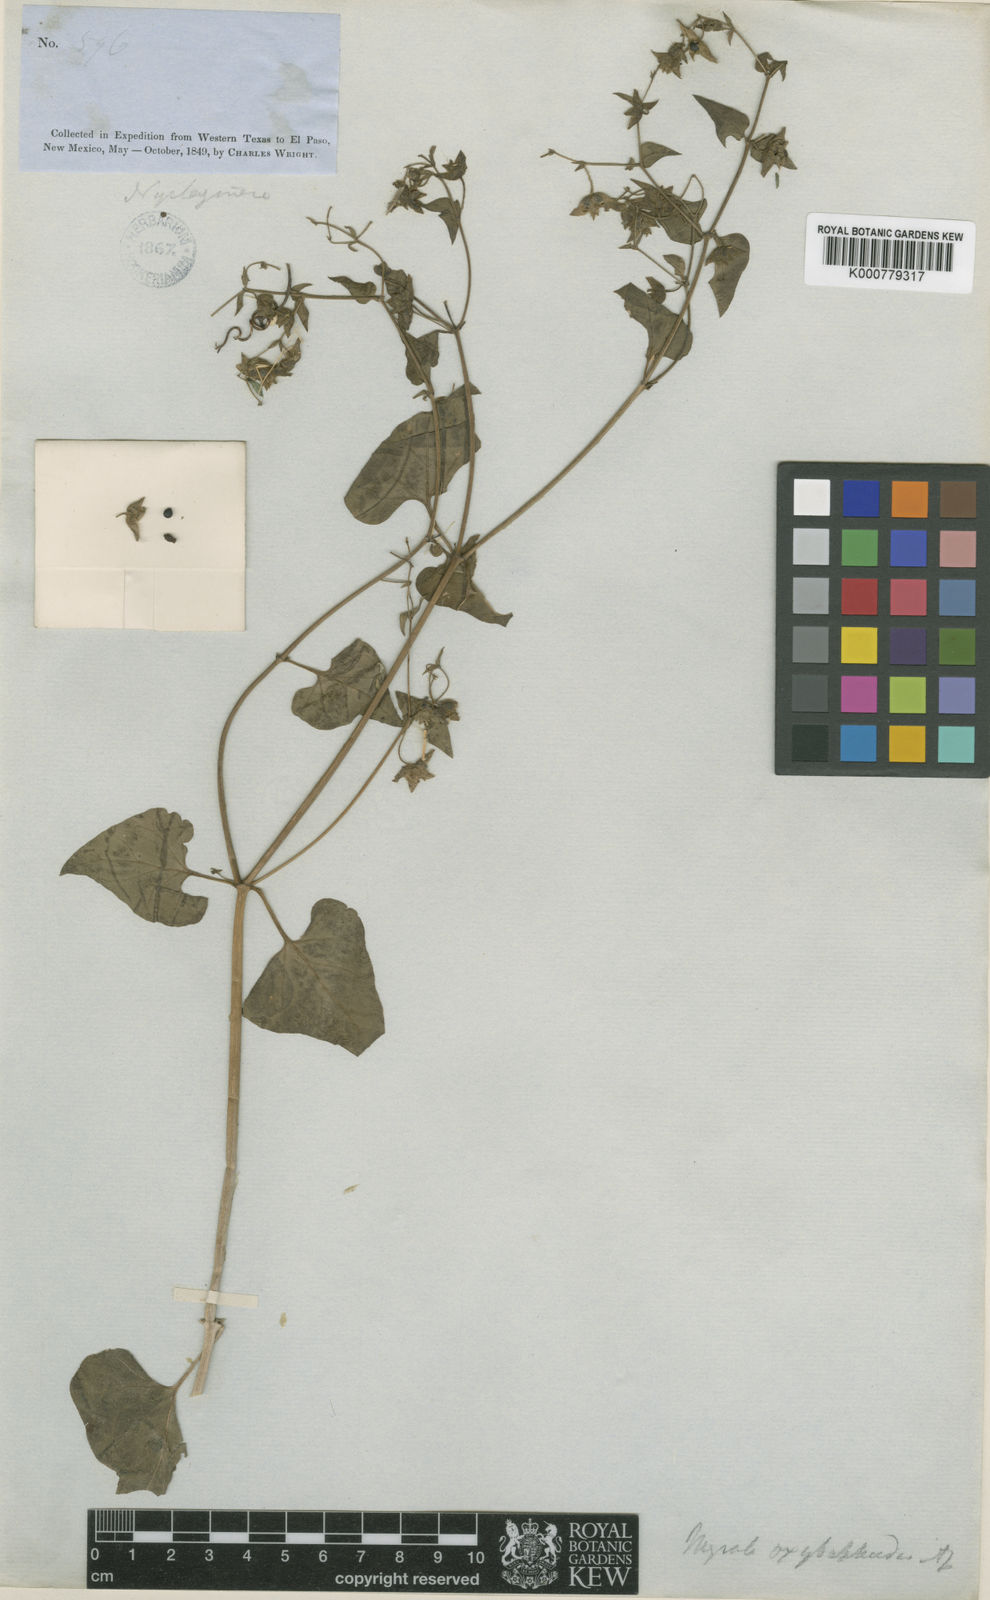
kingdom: Plantae
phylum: Tracheophyta
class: Magnoliopsida
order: Caryophyllales
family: Nyctaginaceae
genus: Mirabilis
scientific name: Mirabilis oxybaphoides
